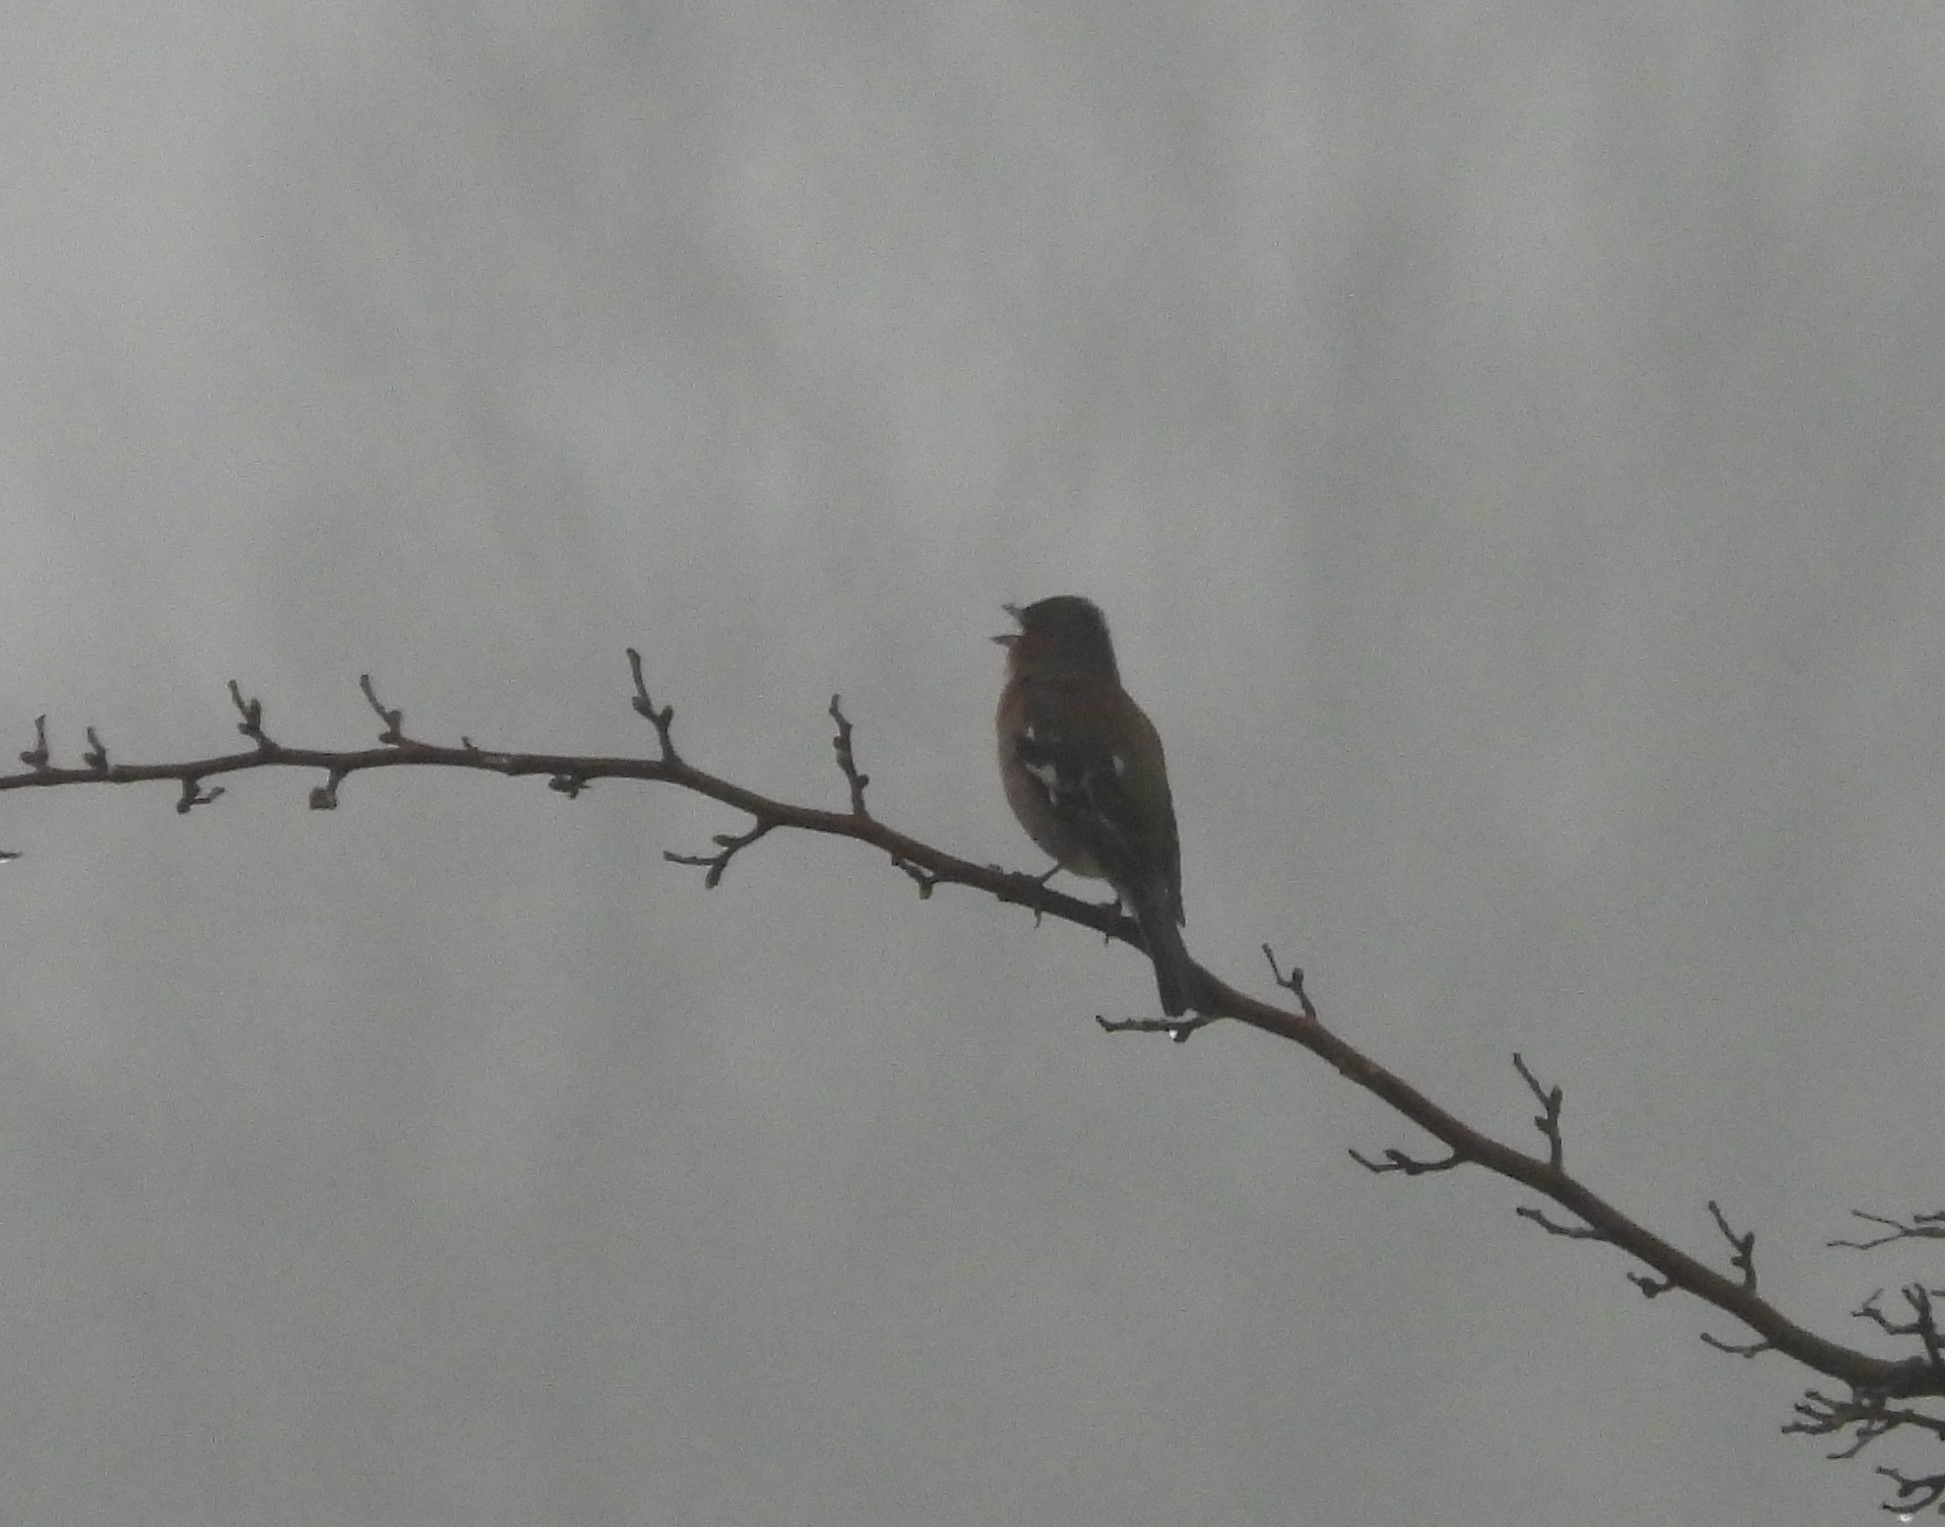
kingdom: Animalia
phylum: Chordata
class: Aves
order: Passeriformes
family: Fringillidae
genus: Fringilla
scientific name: Fringilla coelebs
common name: Bogfinke
